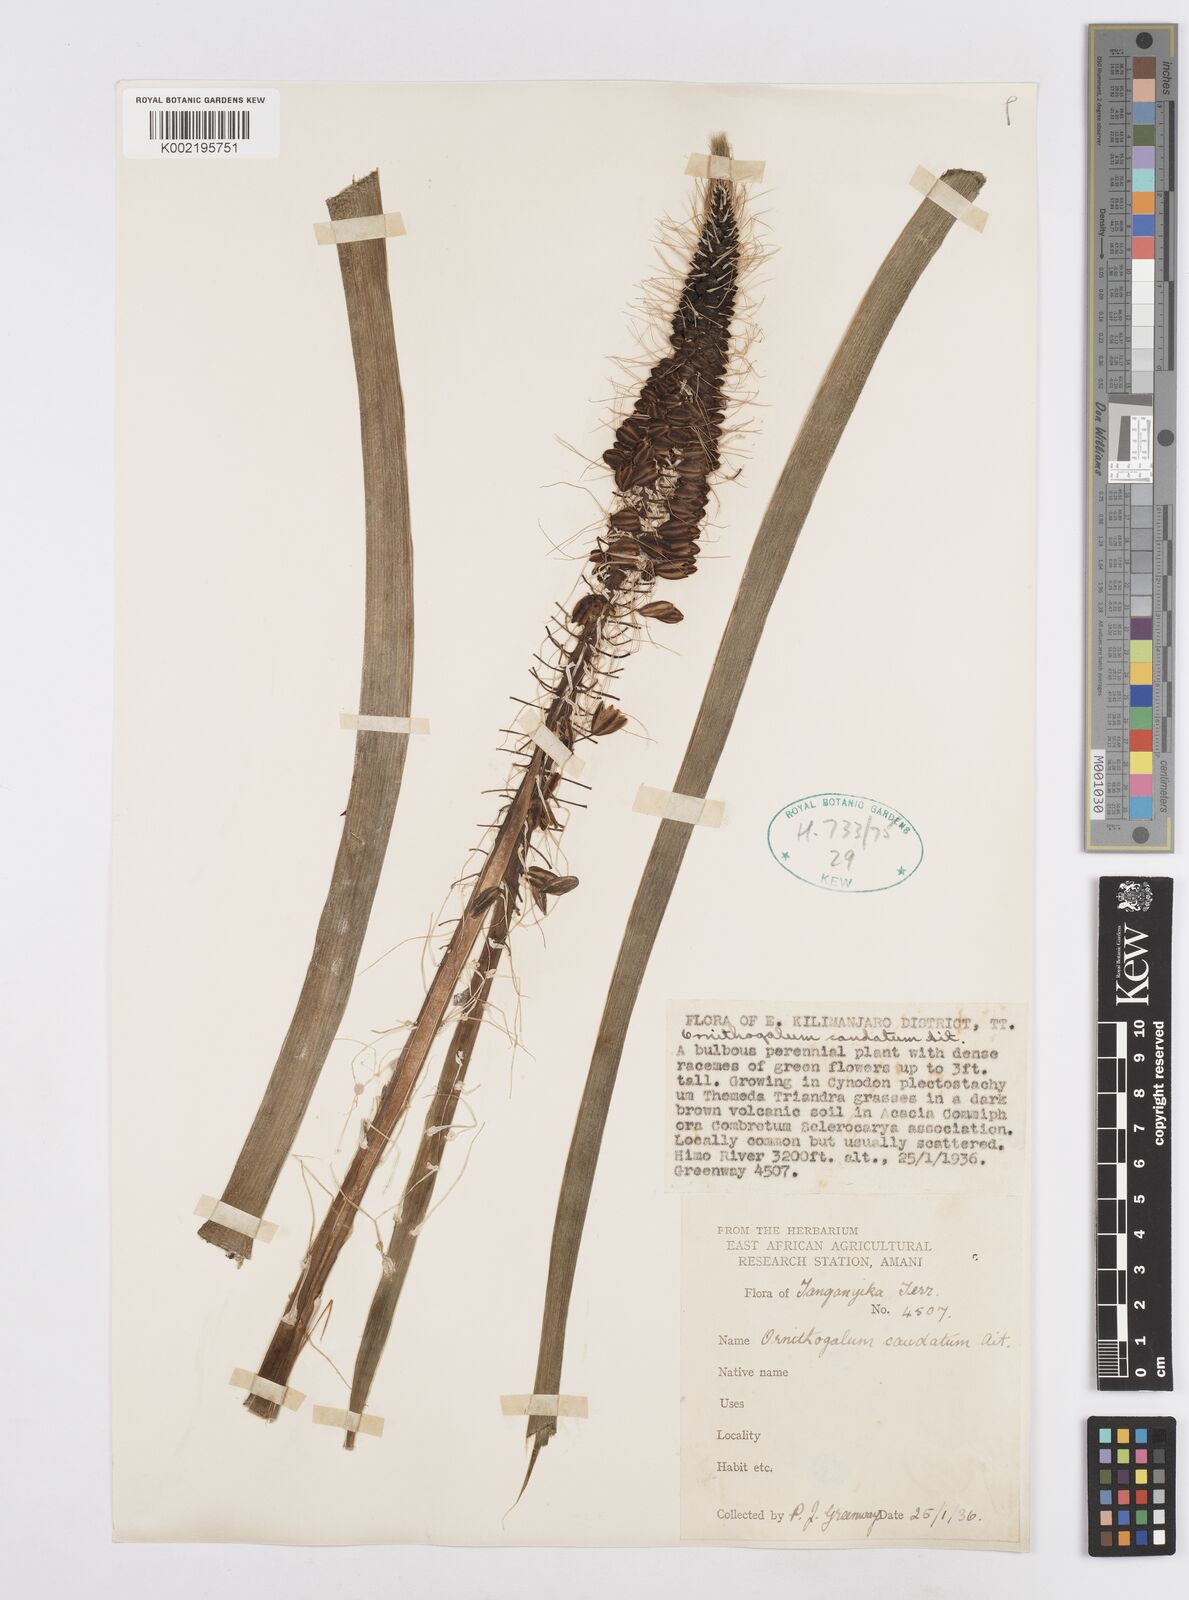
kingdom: Plantae
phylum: Tracheophyta
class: Liliopsida
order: Asparagales
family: Asparagaceae
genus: Ornithogalum
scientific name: Ornithogalum
